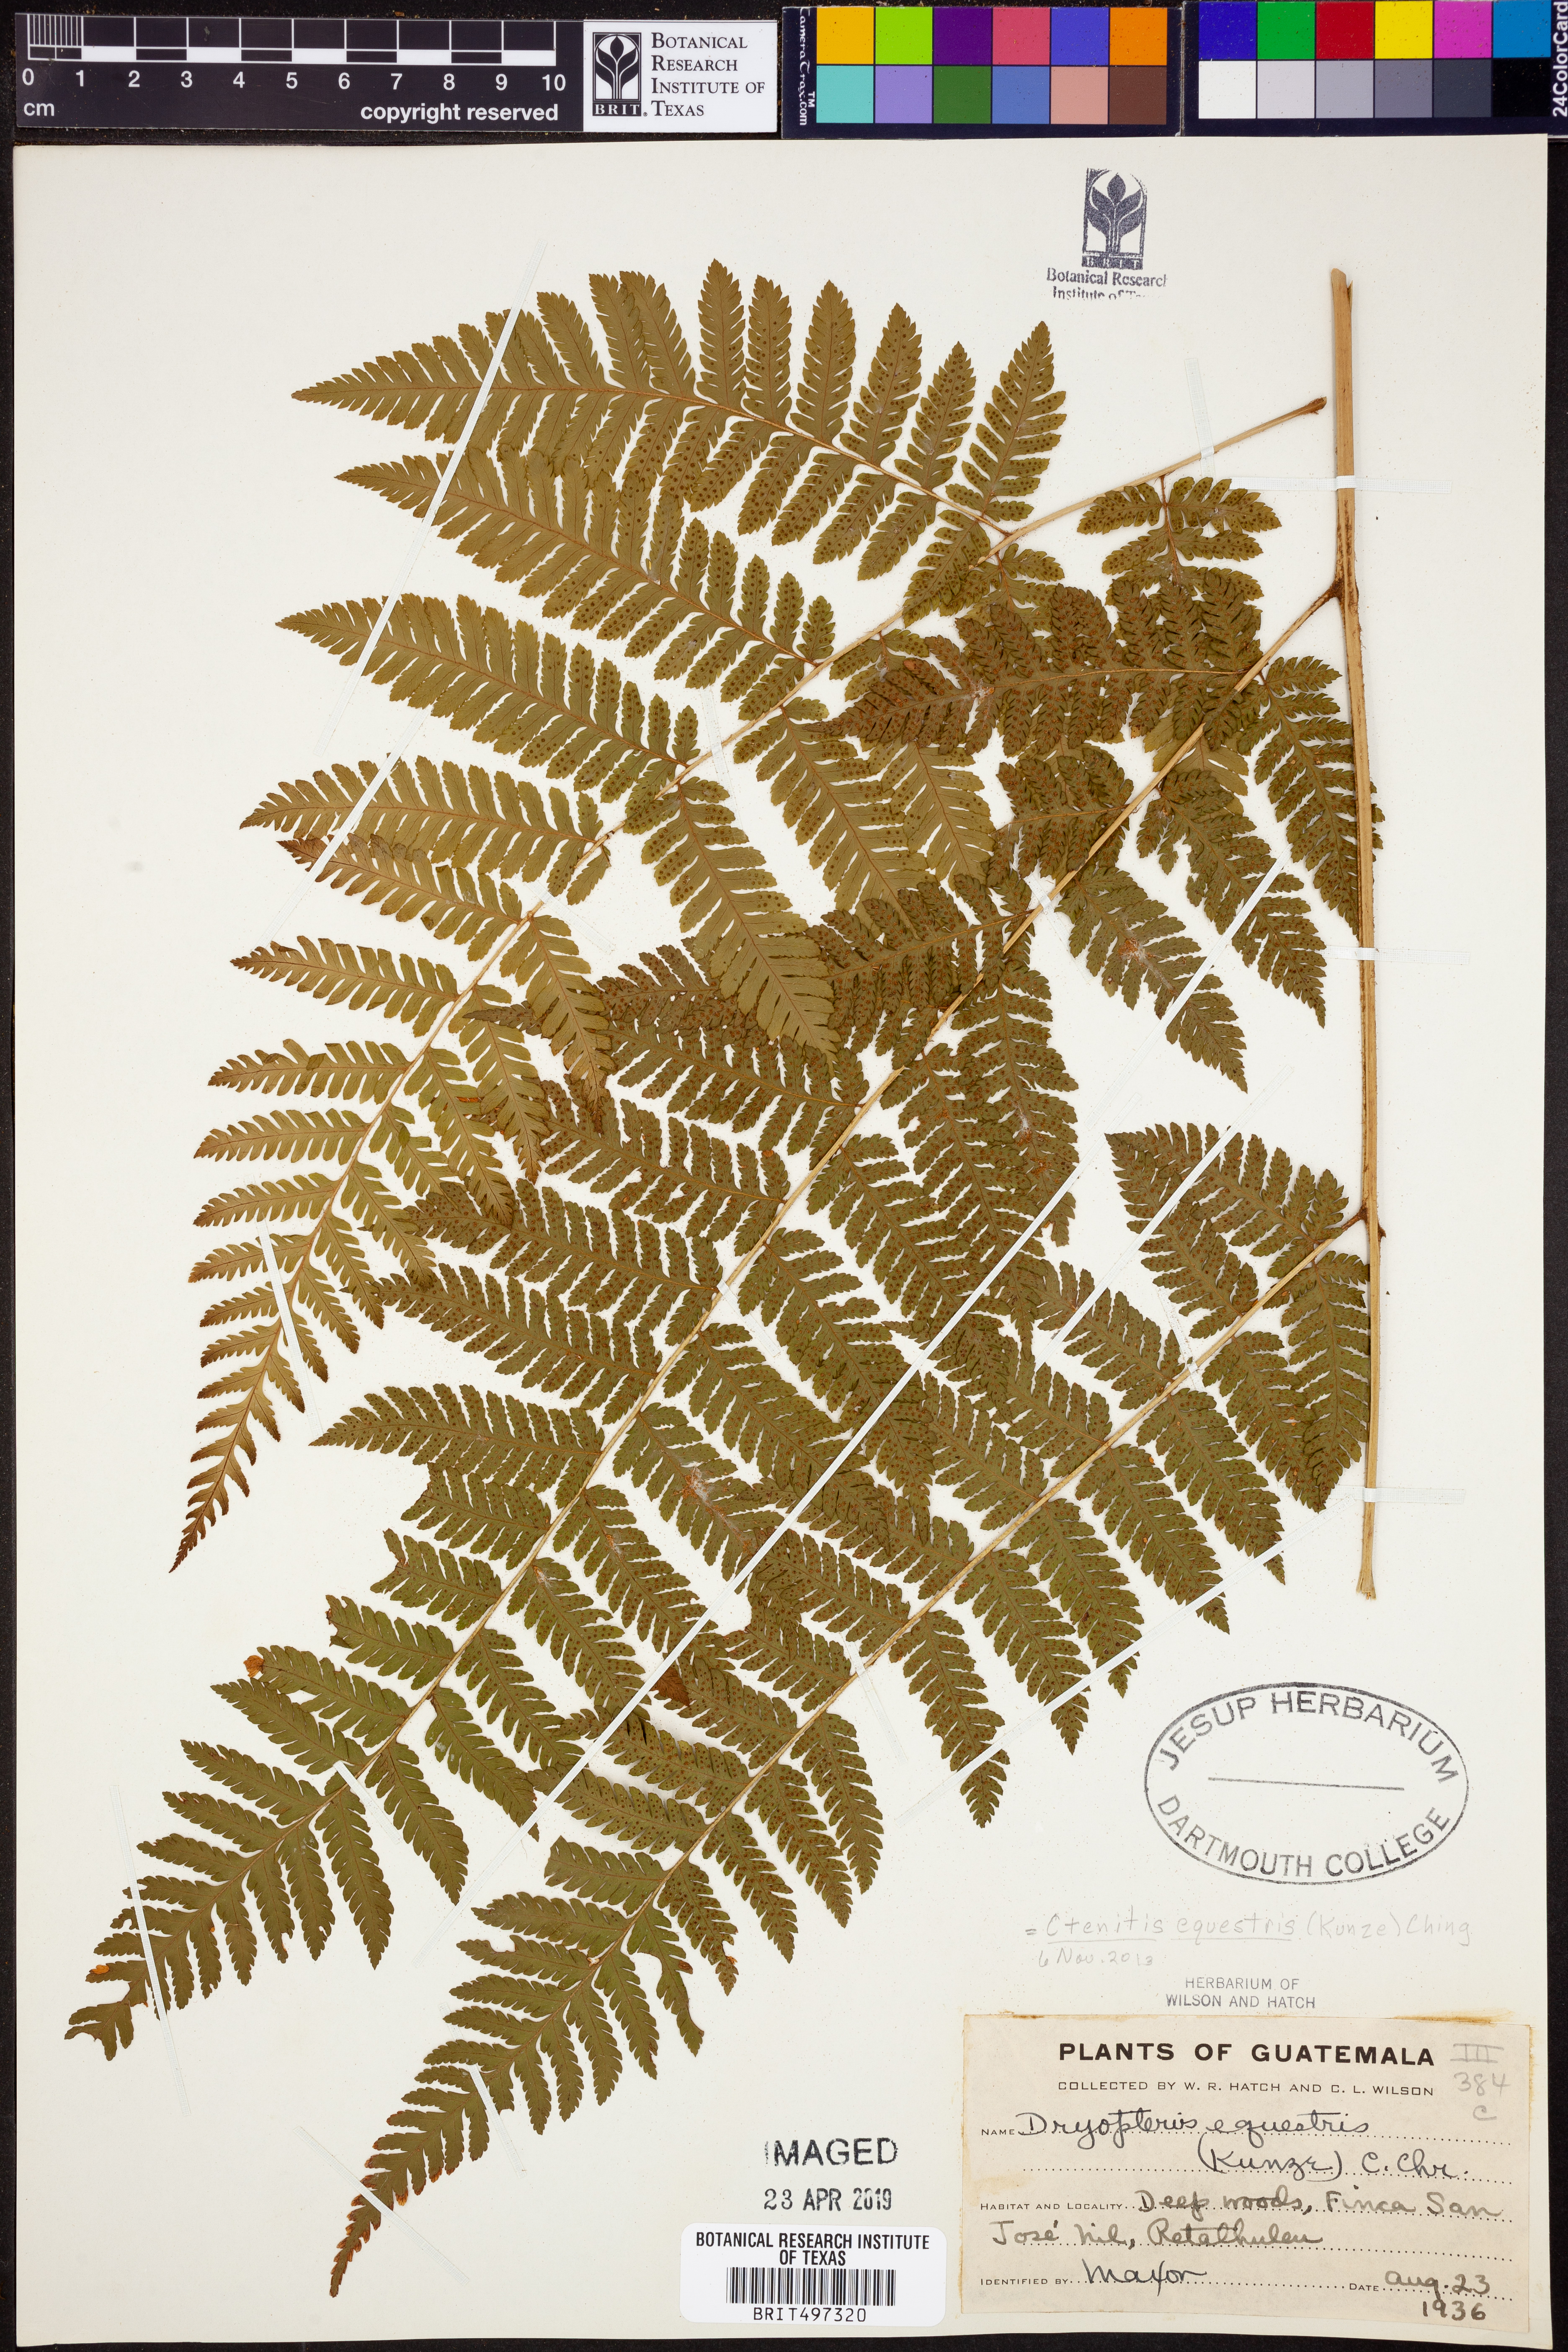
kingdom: Plantae
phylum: Tracheophyta
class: Polypodiopsida
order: Polypodiales
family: Dryopteridaceae
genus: Ctenitis
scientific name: Ctenitis equestris
